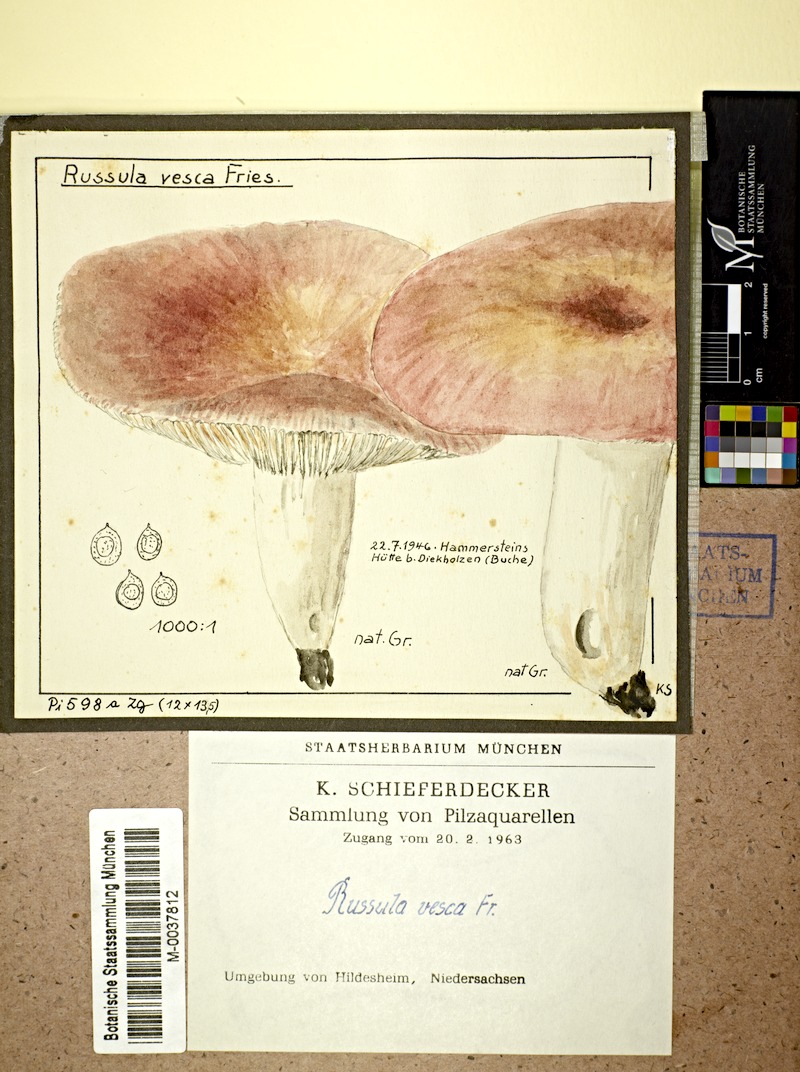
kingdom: Fungi
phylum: Basidiomycota
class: Agaricomycetes
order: Russulales
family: Russulaceae
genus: Russula
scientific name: Russula vesca
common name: Bare-toothed russula
